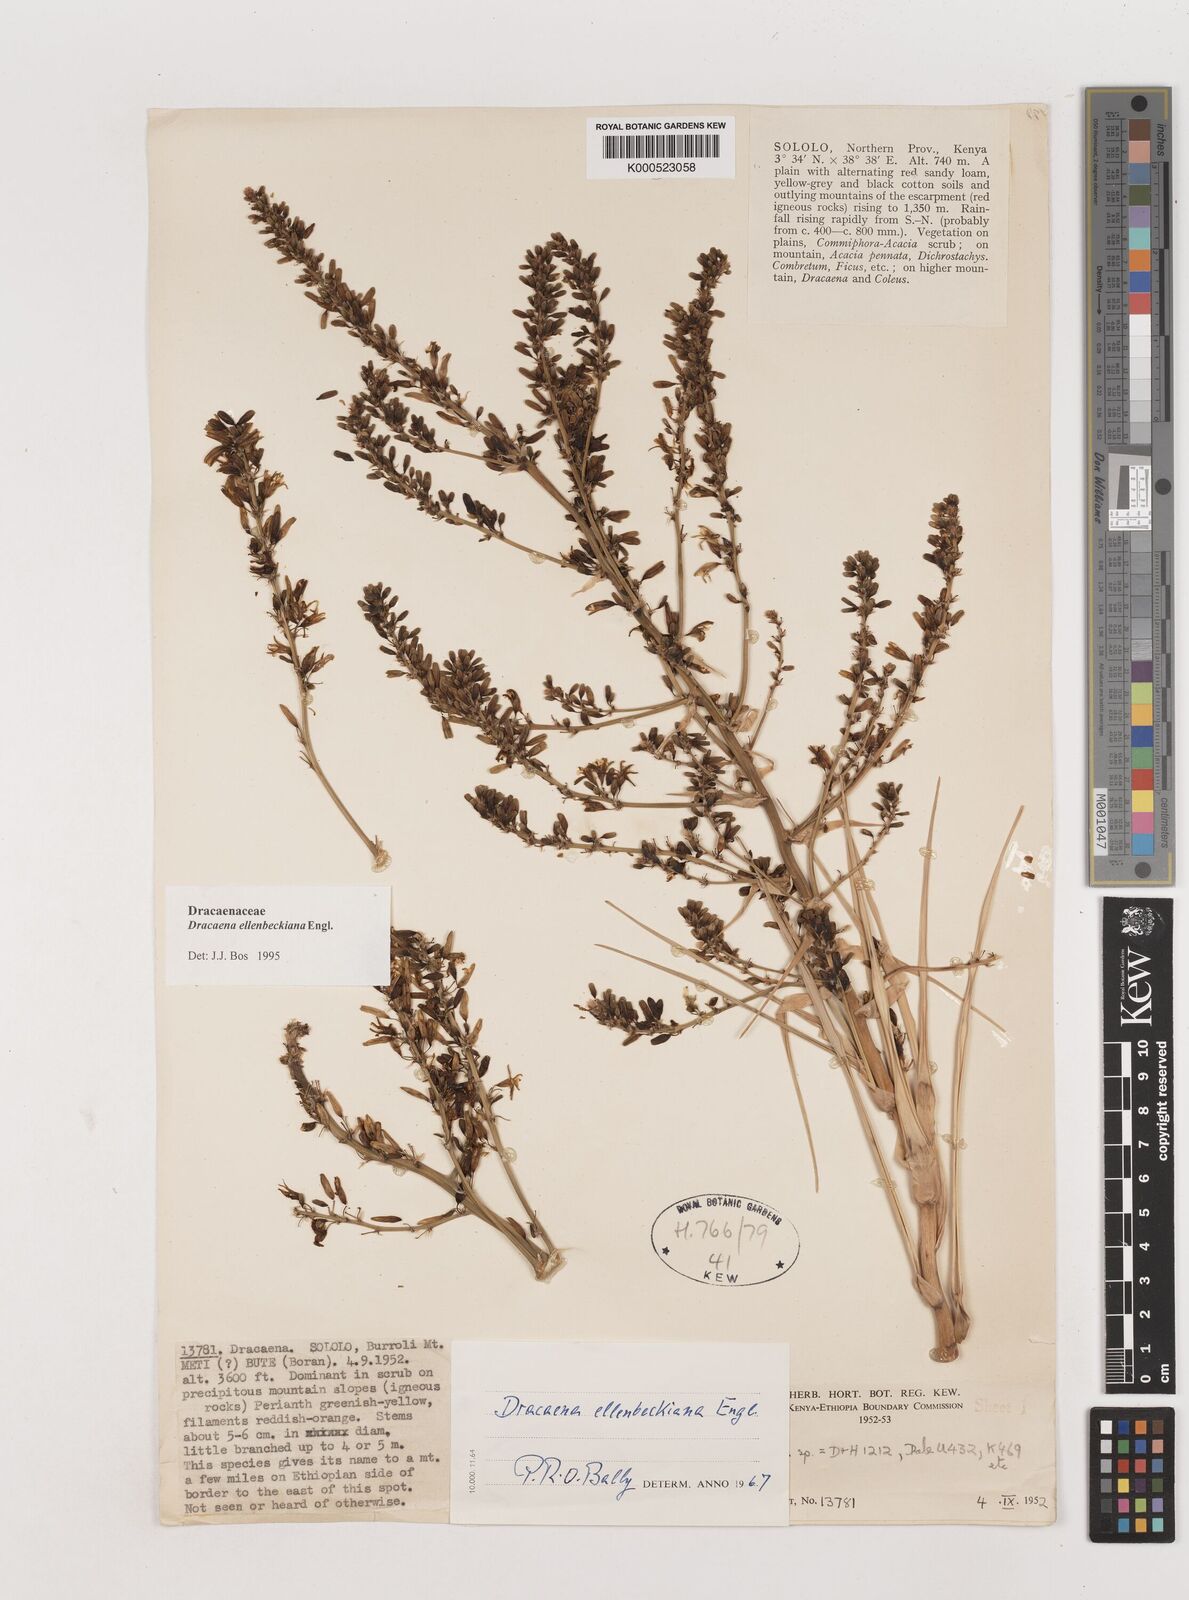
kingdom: Plantae
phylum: Tracheophyta
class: Liliopsida
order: Asparagales
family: Asparagaceae
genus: Dracaena
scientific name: Dracaena ellenbeckiana
